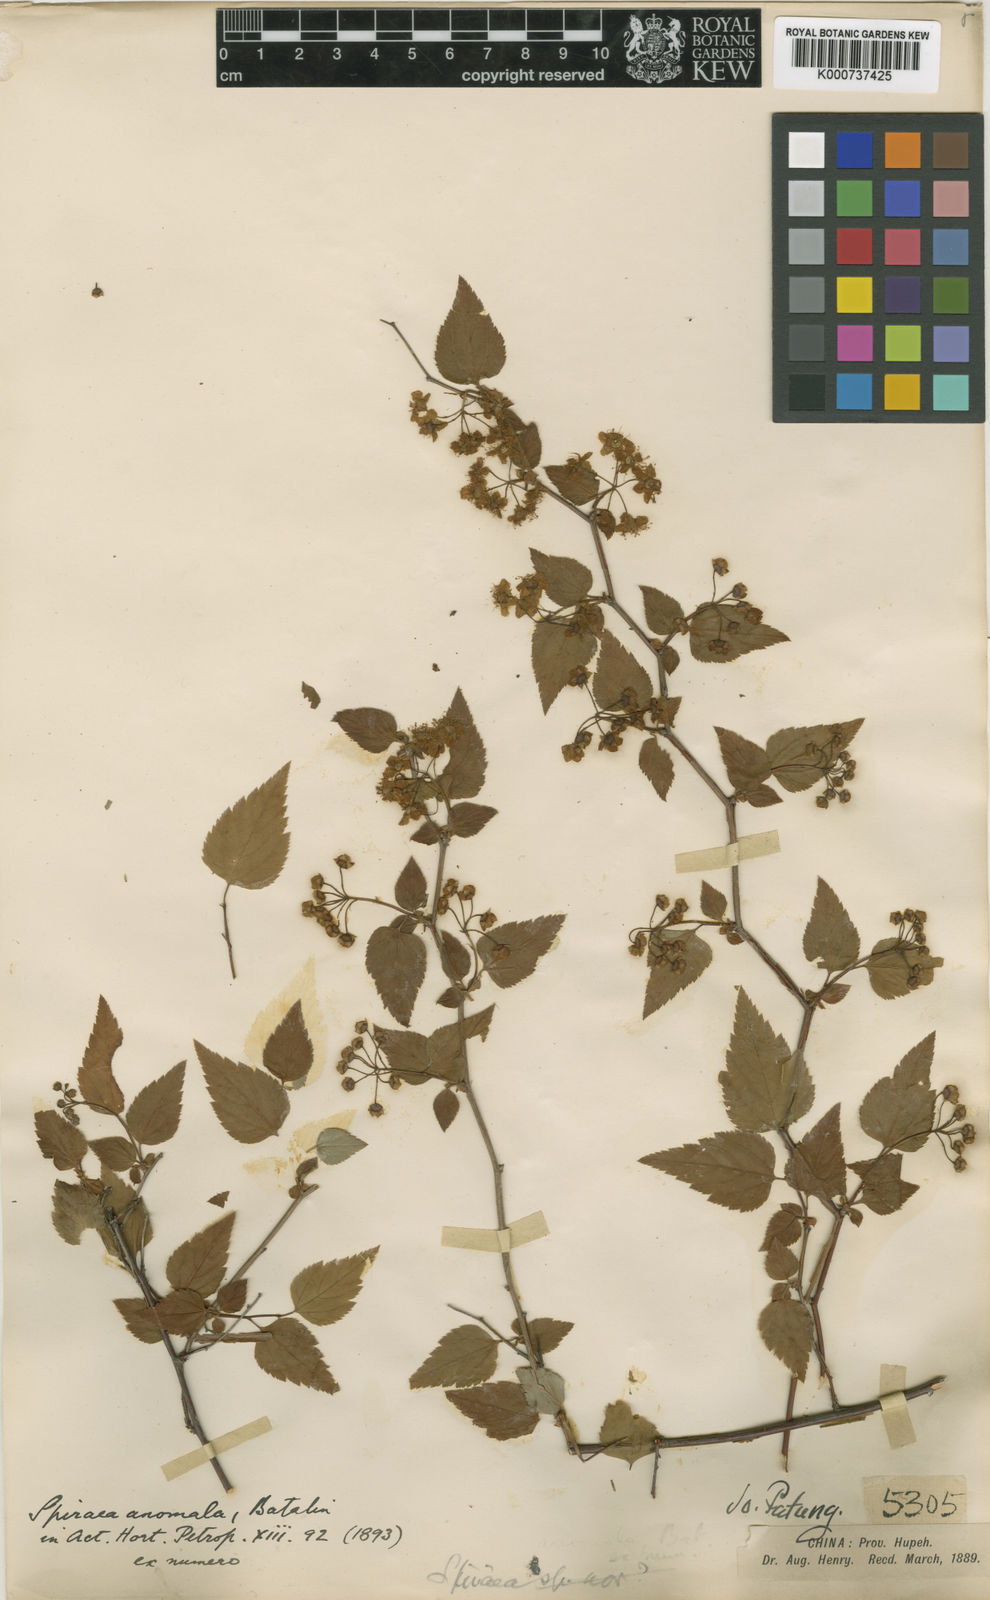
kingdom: Plantae
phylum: Tracheophyta
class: Magnoliopsida
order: Rosales
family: Rosaceae
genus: Spiraea
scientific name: Spiraea anomala
